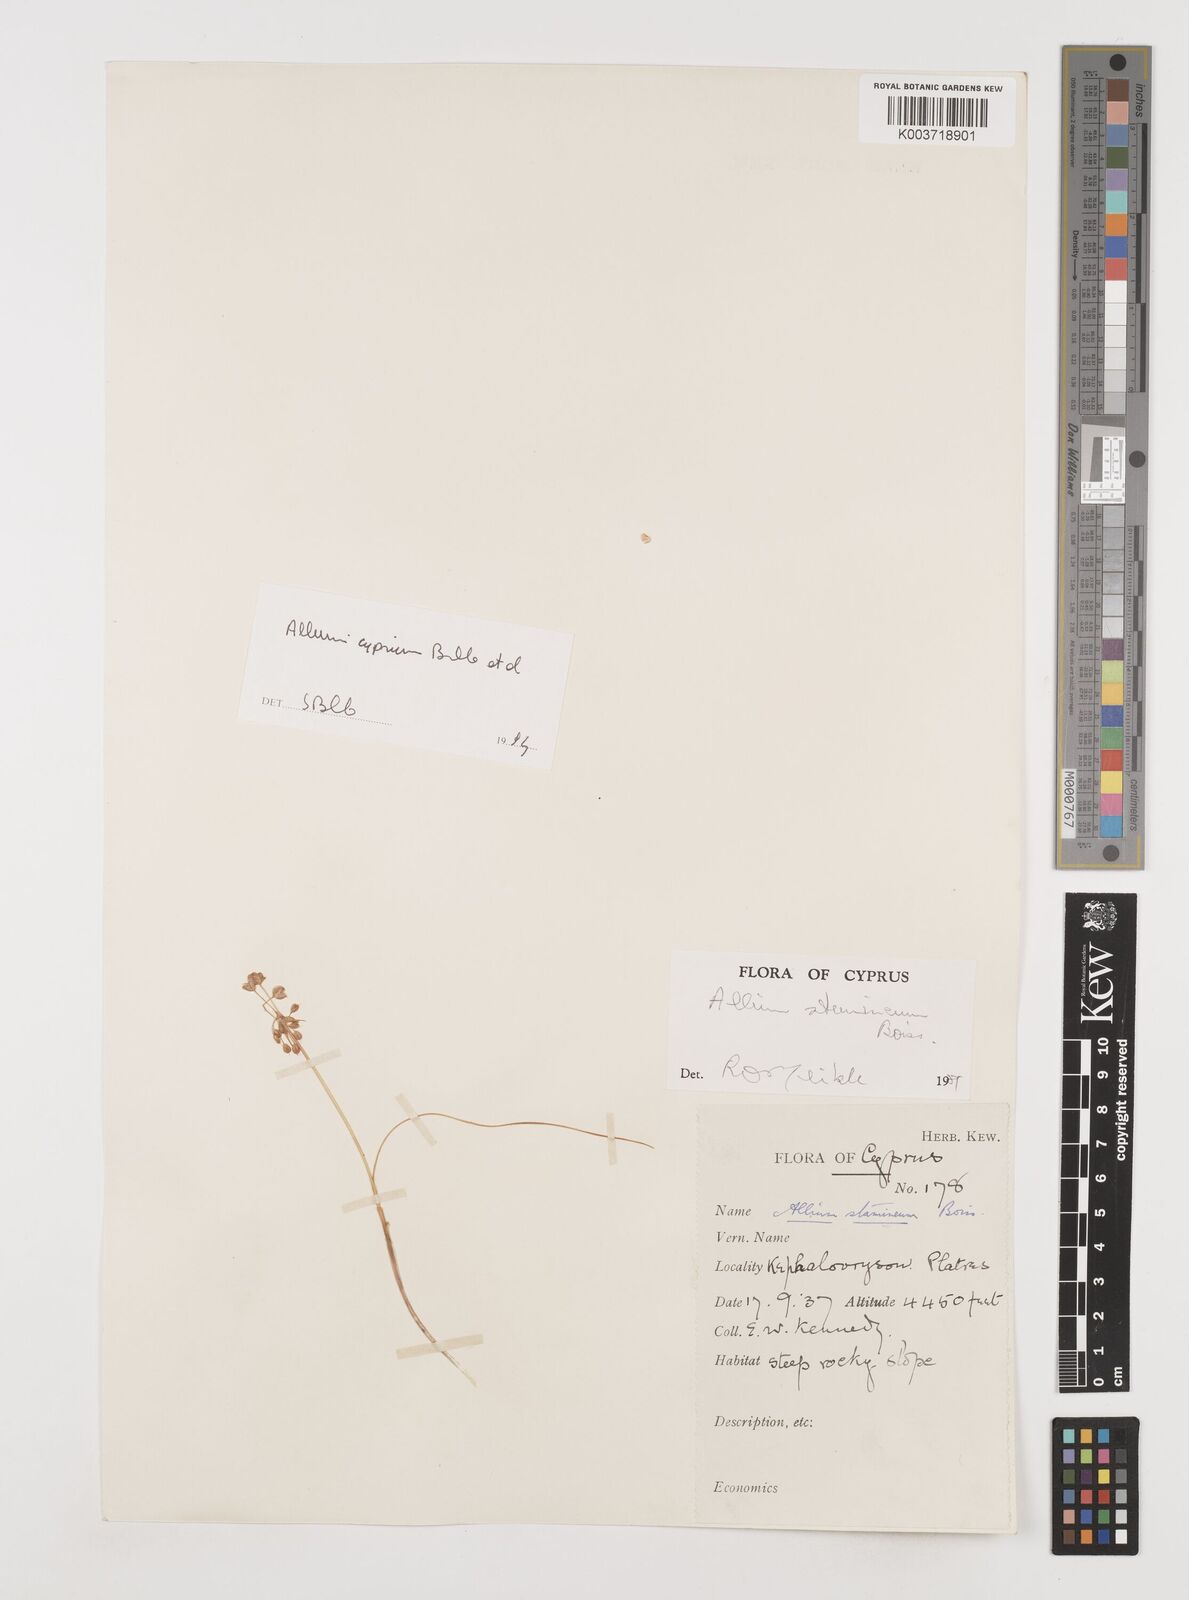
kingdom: Plantae
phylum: Tracheophyta
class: Liliopsida
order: Asparagales
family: Amaryllidaceae
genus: Allium
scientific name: Allium stamineum
